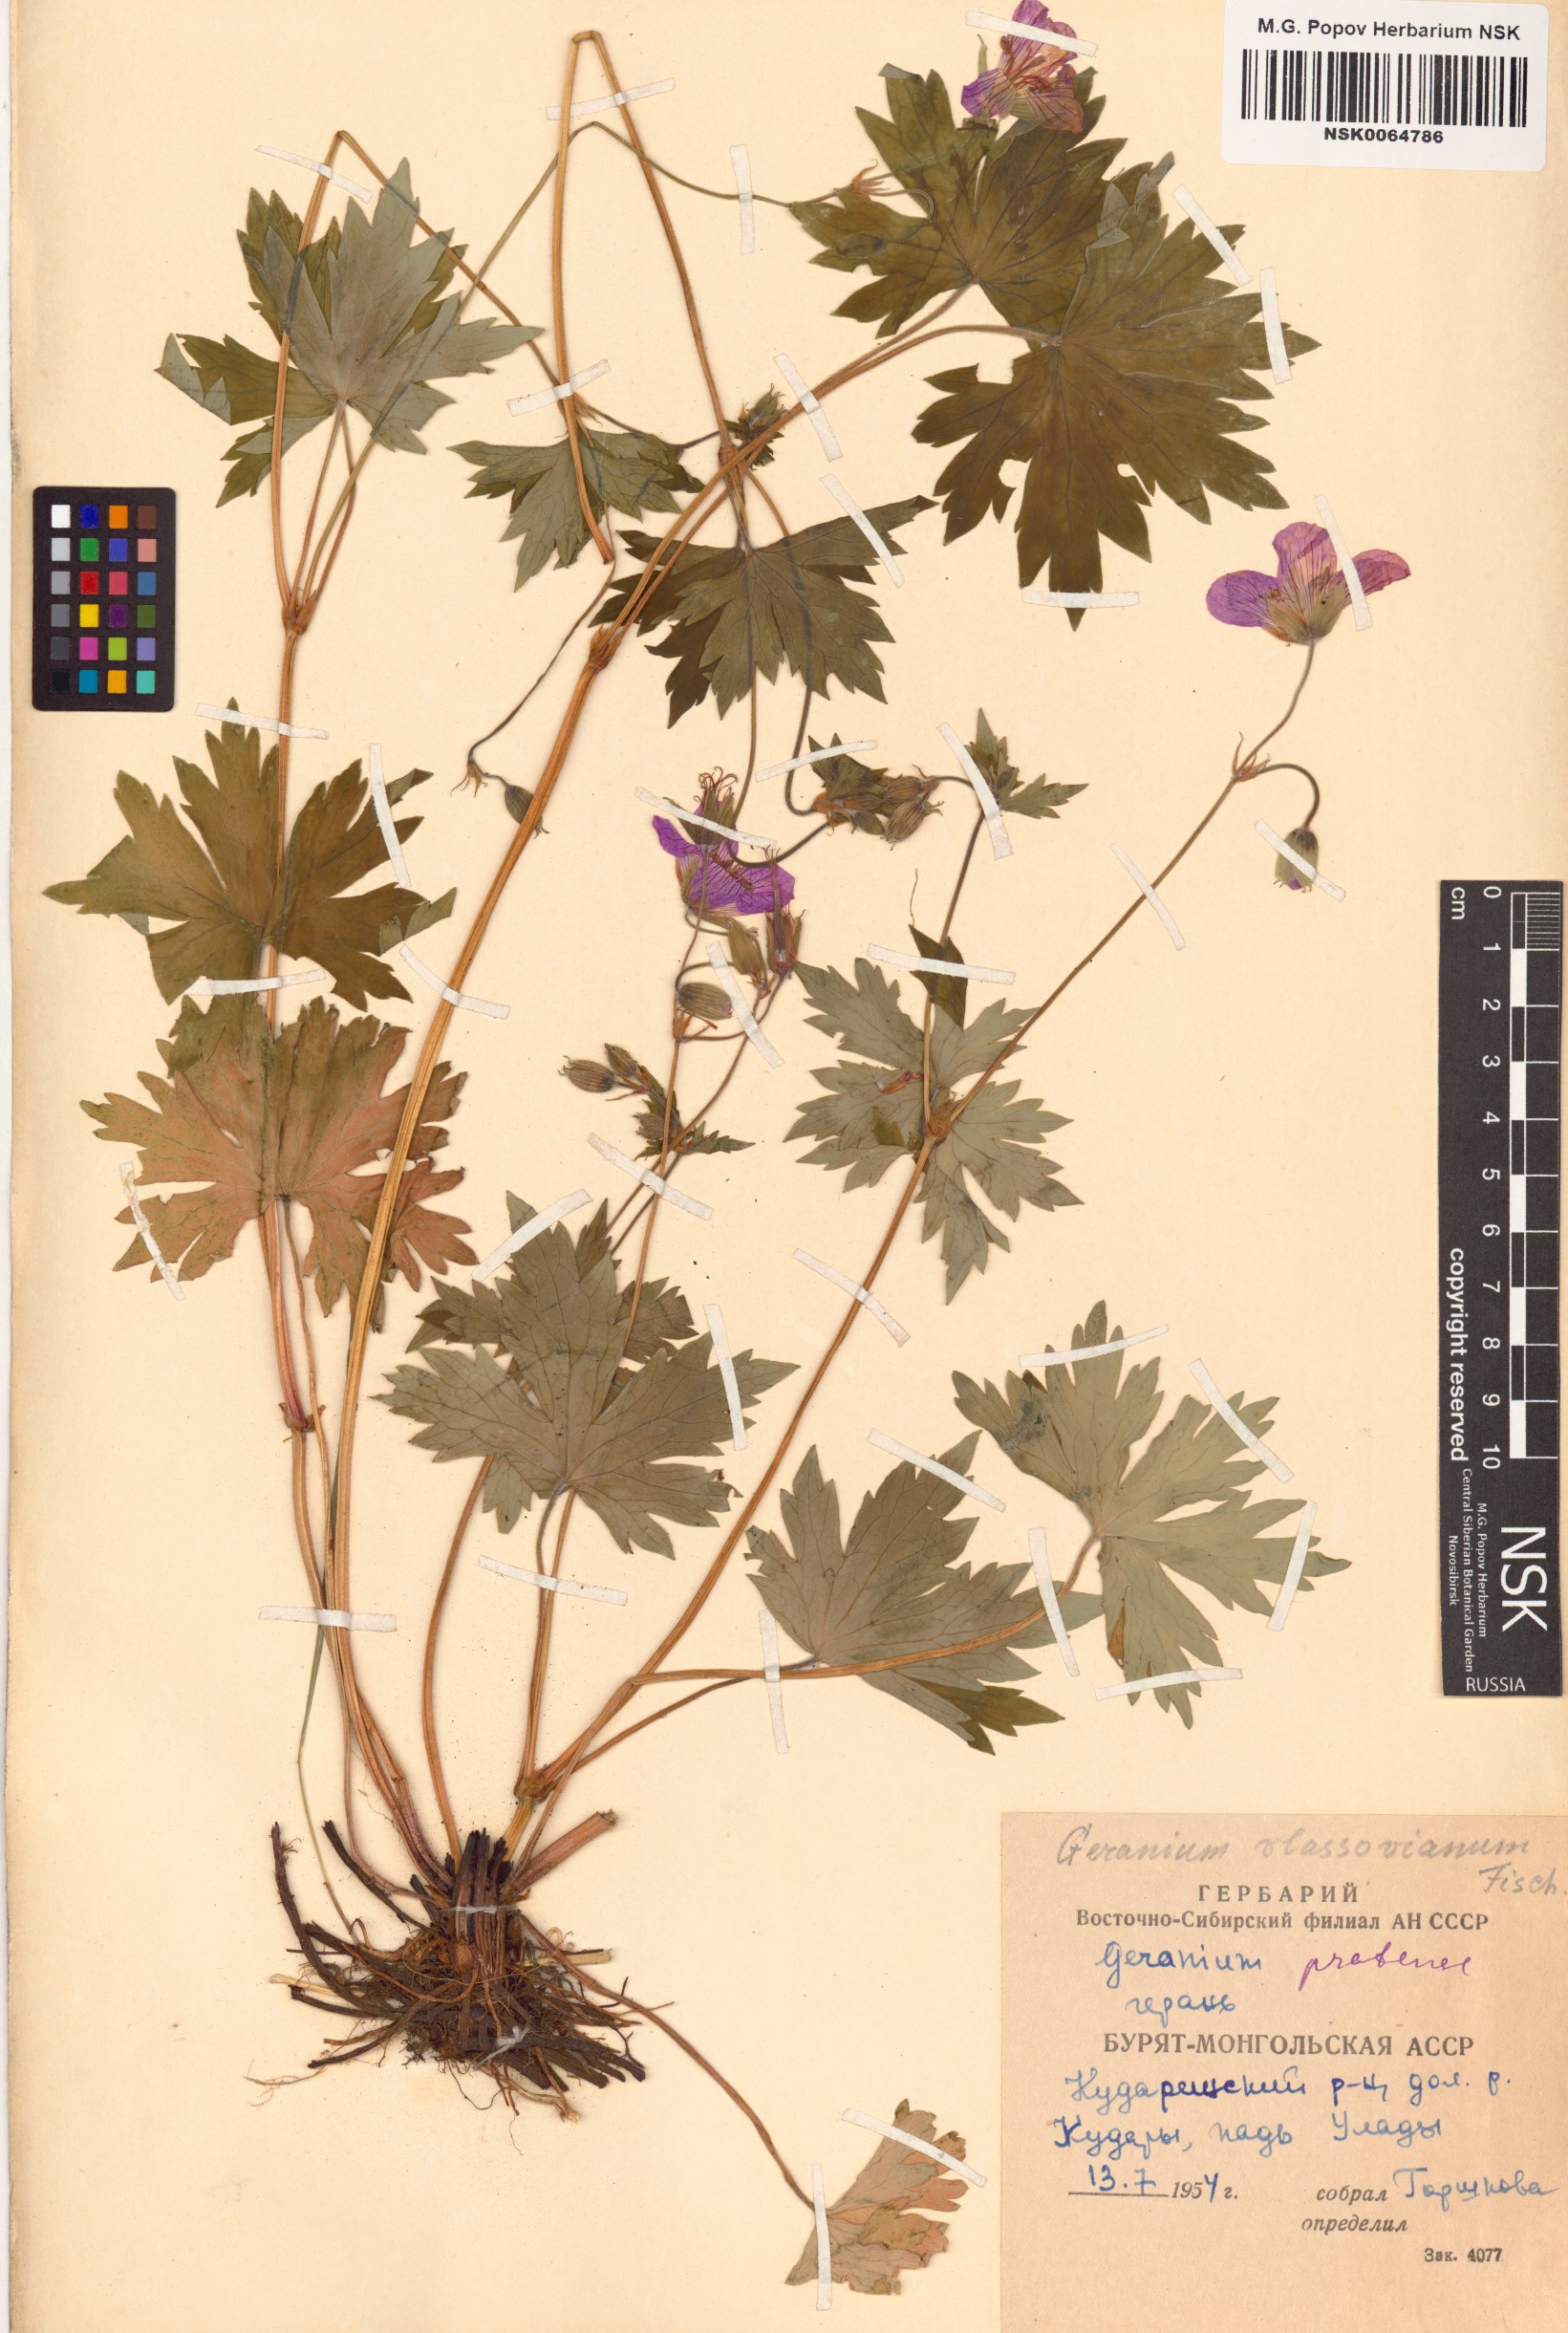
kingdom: Plantae
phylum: Tracheophyta
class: Magnoliopsida
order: Geraniales
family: Geraniaceae
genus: Geranium
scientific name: Geranium wlassovianum
